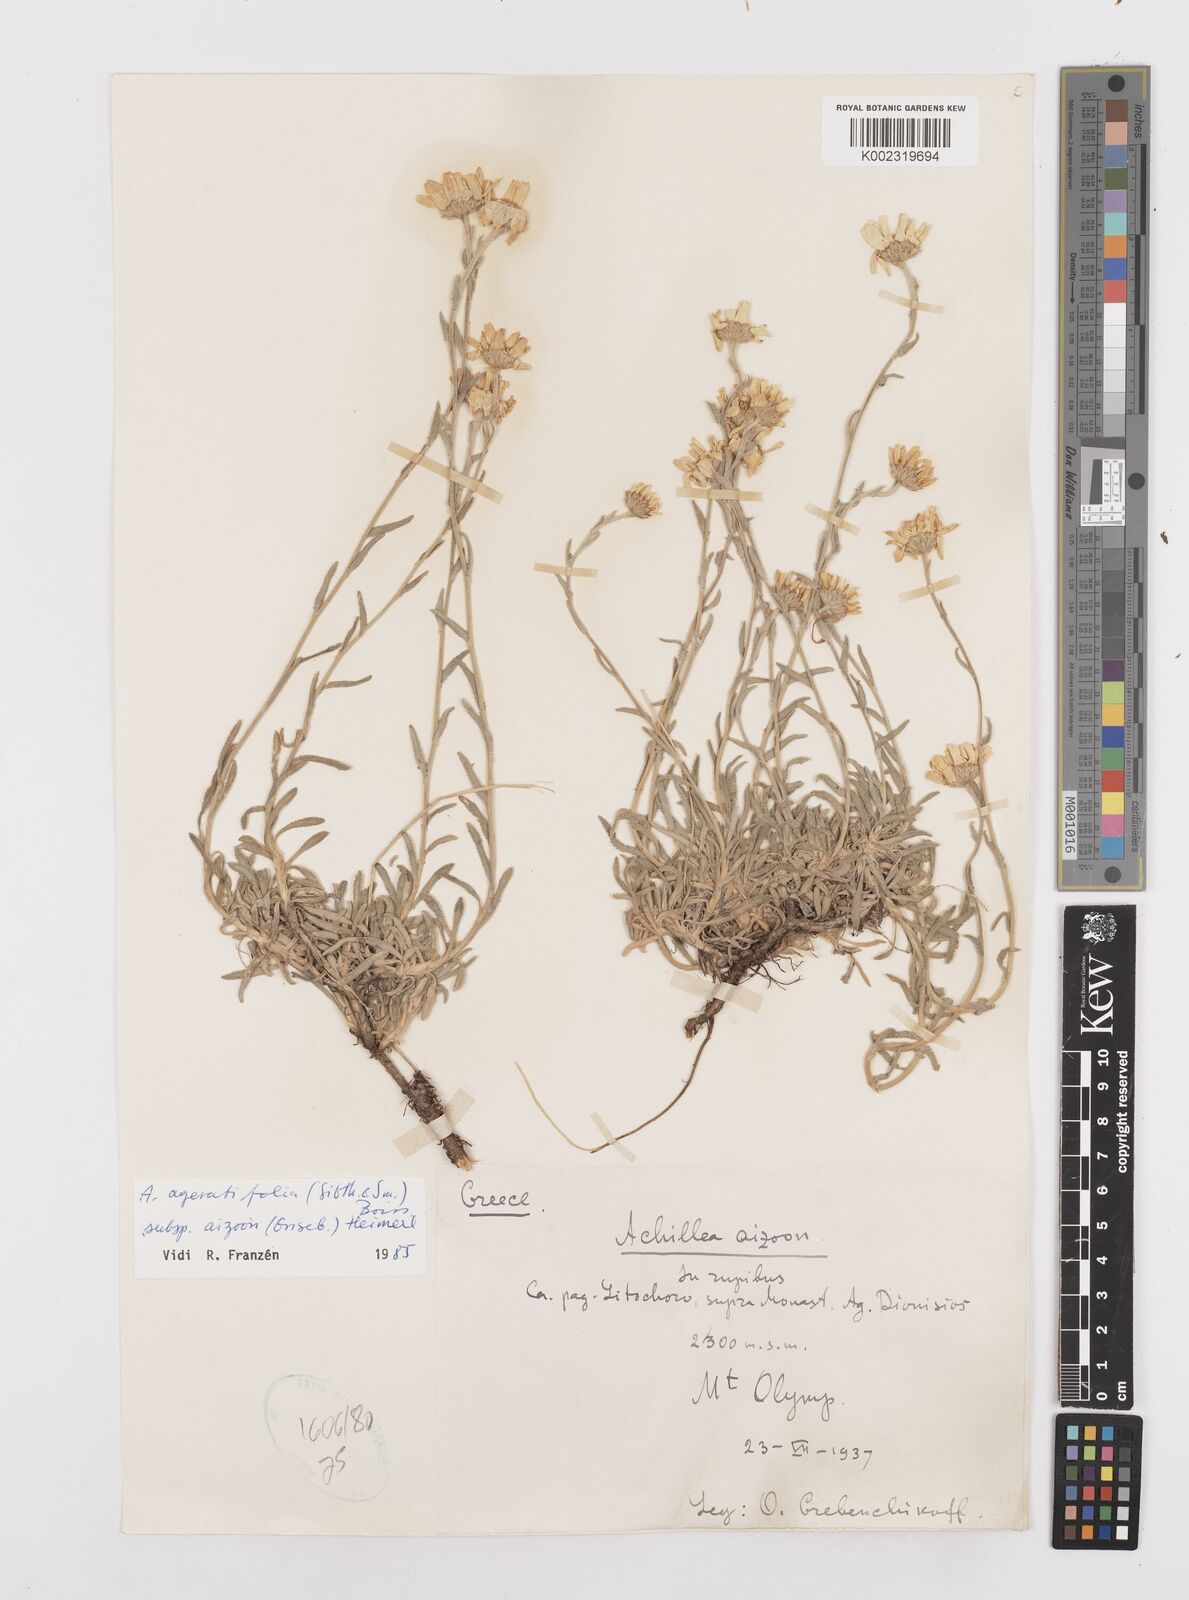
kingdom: Plantae
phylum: Tracheophyta
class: Magnoliopsida
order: Asterales
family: Asteraceae
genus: Achillea
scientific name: Achillea ageratifolia
